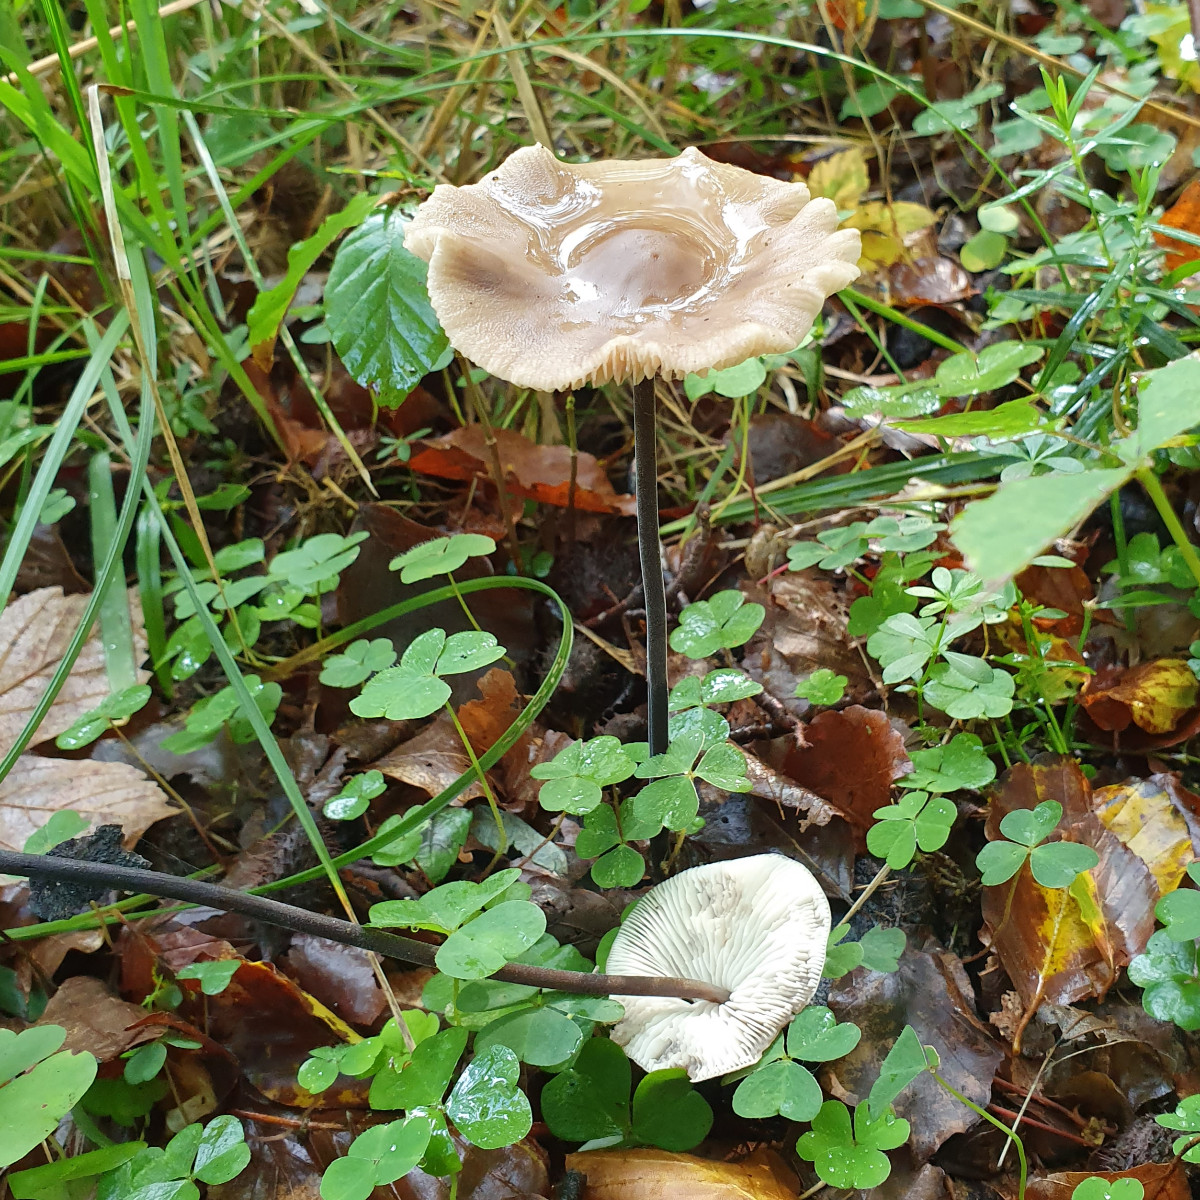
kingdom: Fungi
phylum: Basidiomycota
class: Agaricomycetes
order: Agaricales
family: Omphalotaceae
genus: Mycetinis
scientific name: Mycetinis alliaceus
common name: stor løghat
